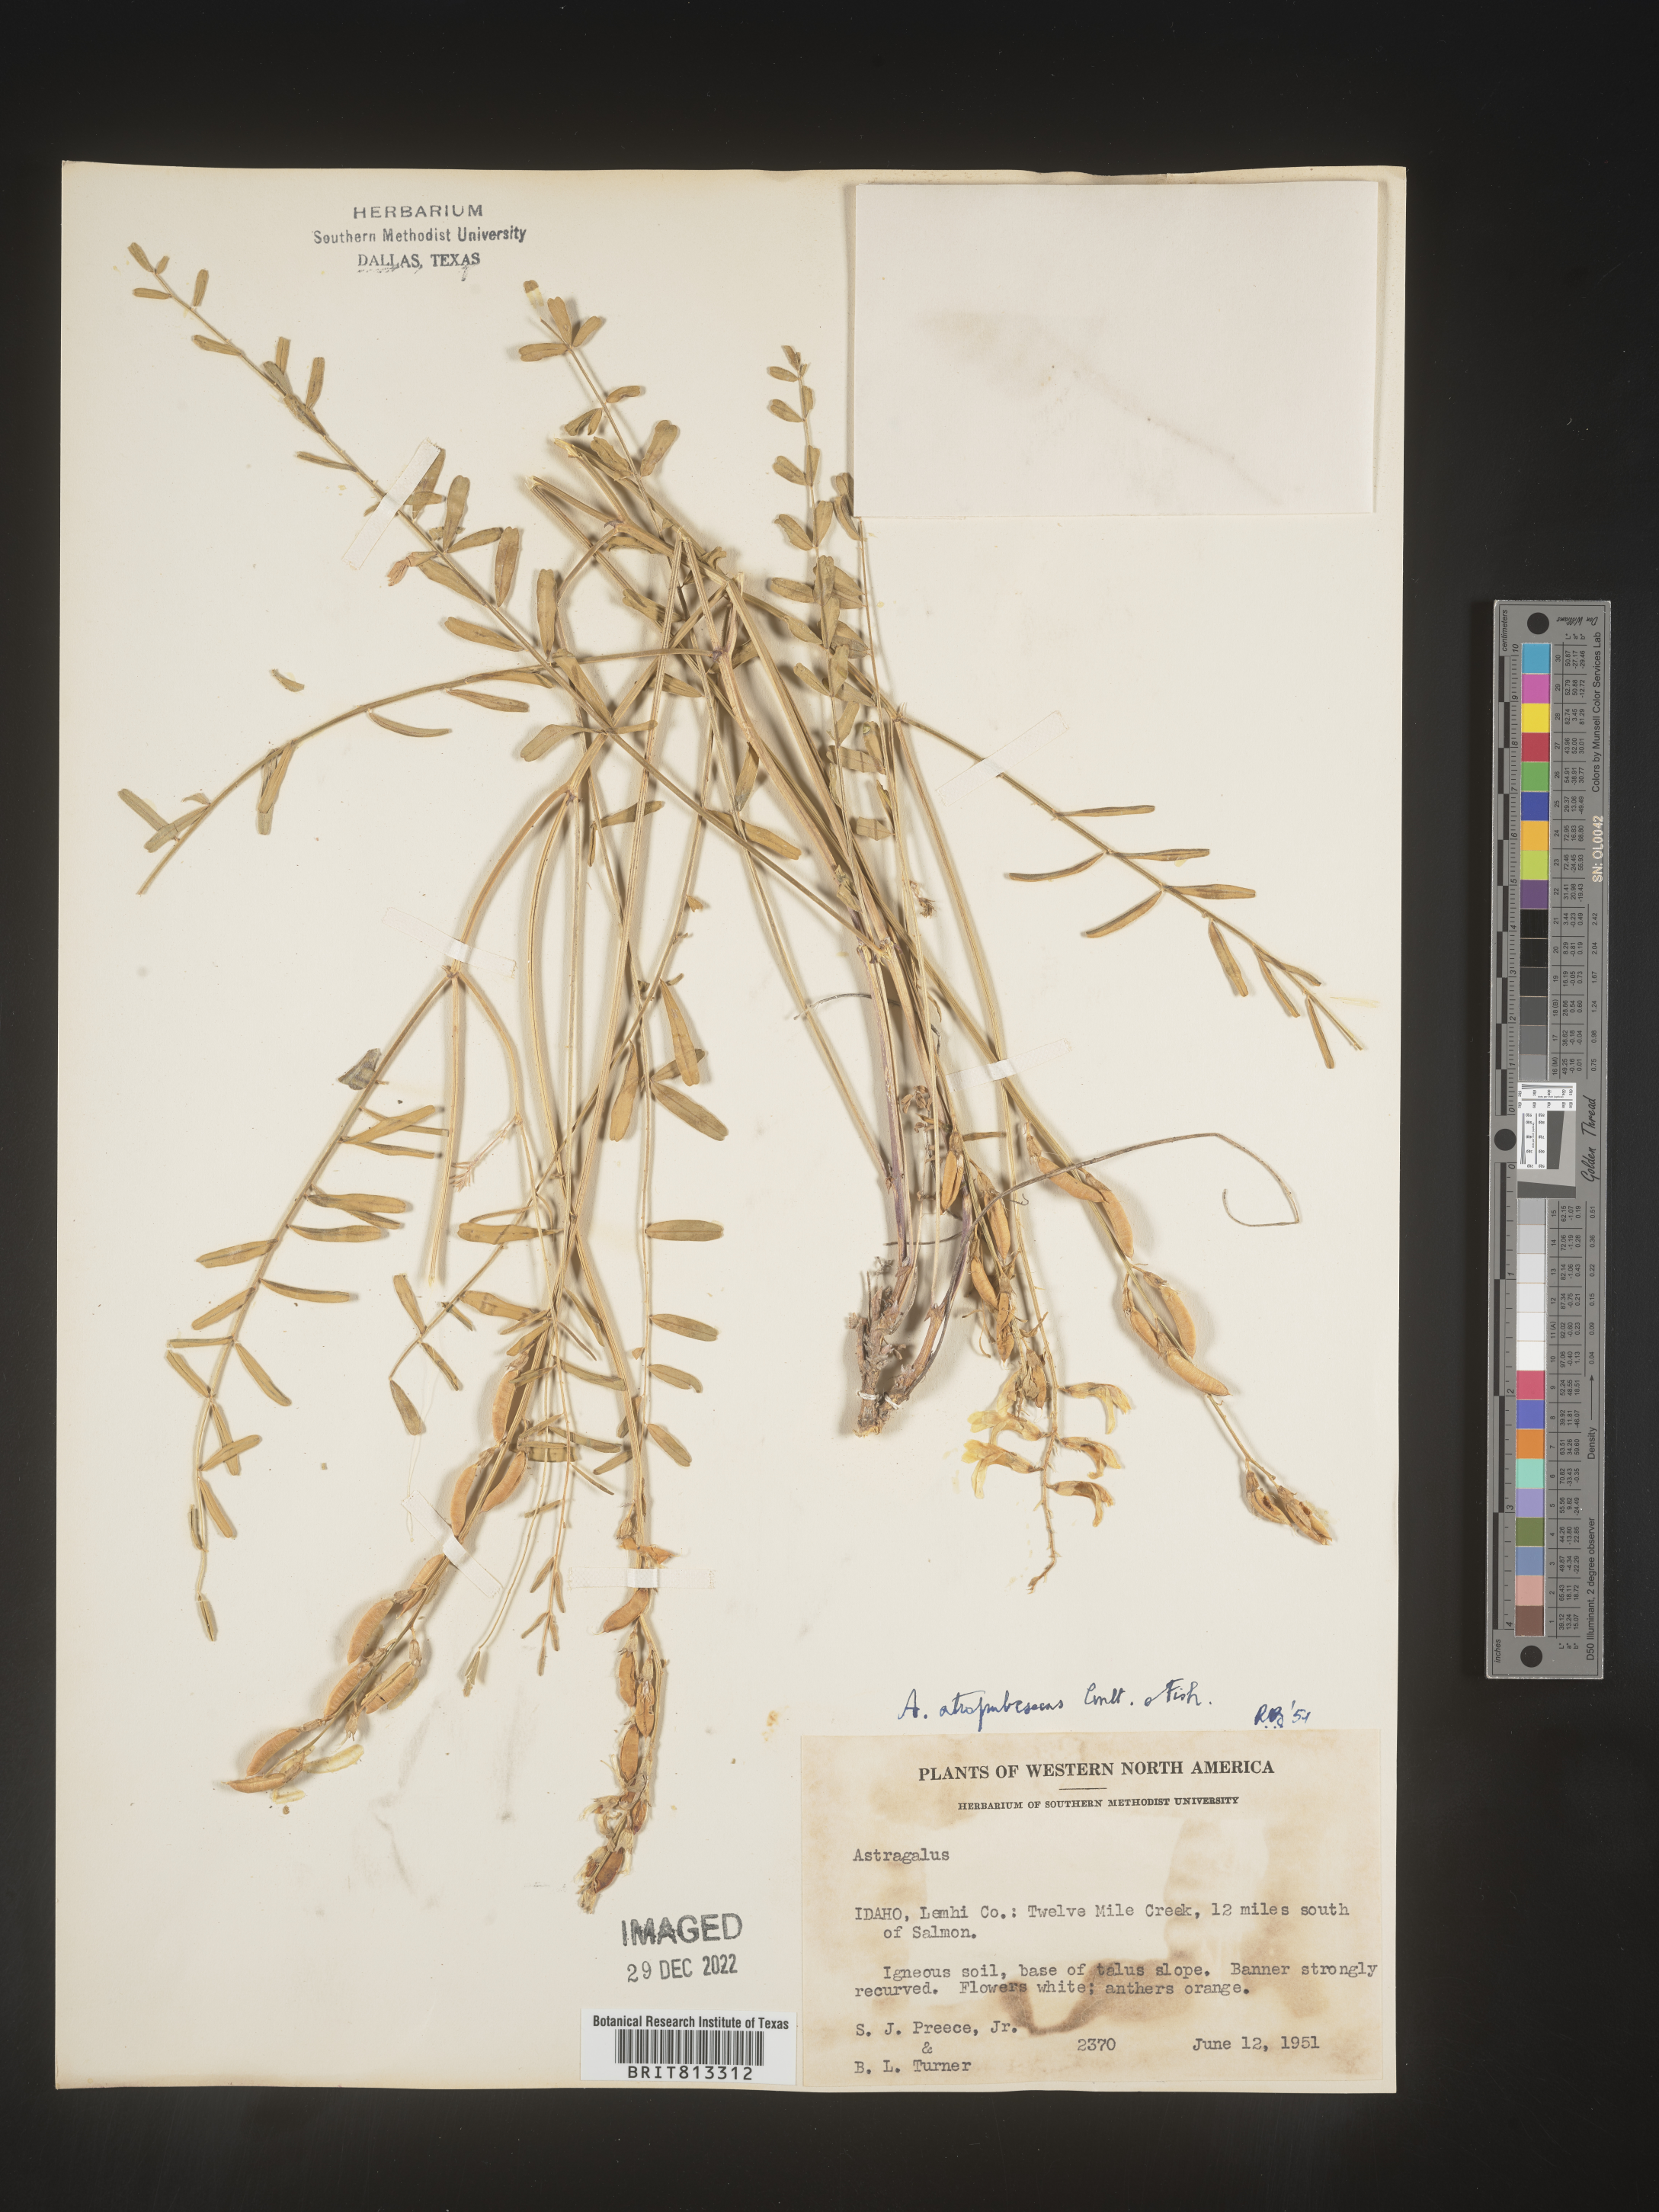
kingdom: Plantae
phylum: Tracheophyta
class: Magnoliopsida
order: Fabales
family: Fabaceae
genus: Astragalus
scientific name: Astragalus
